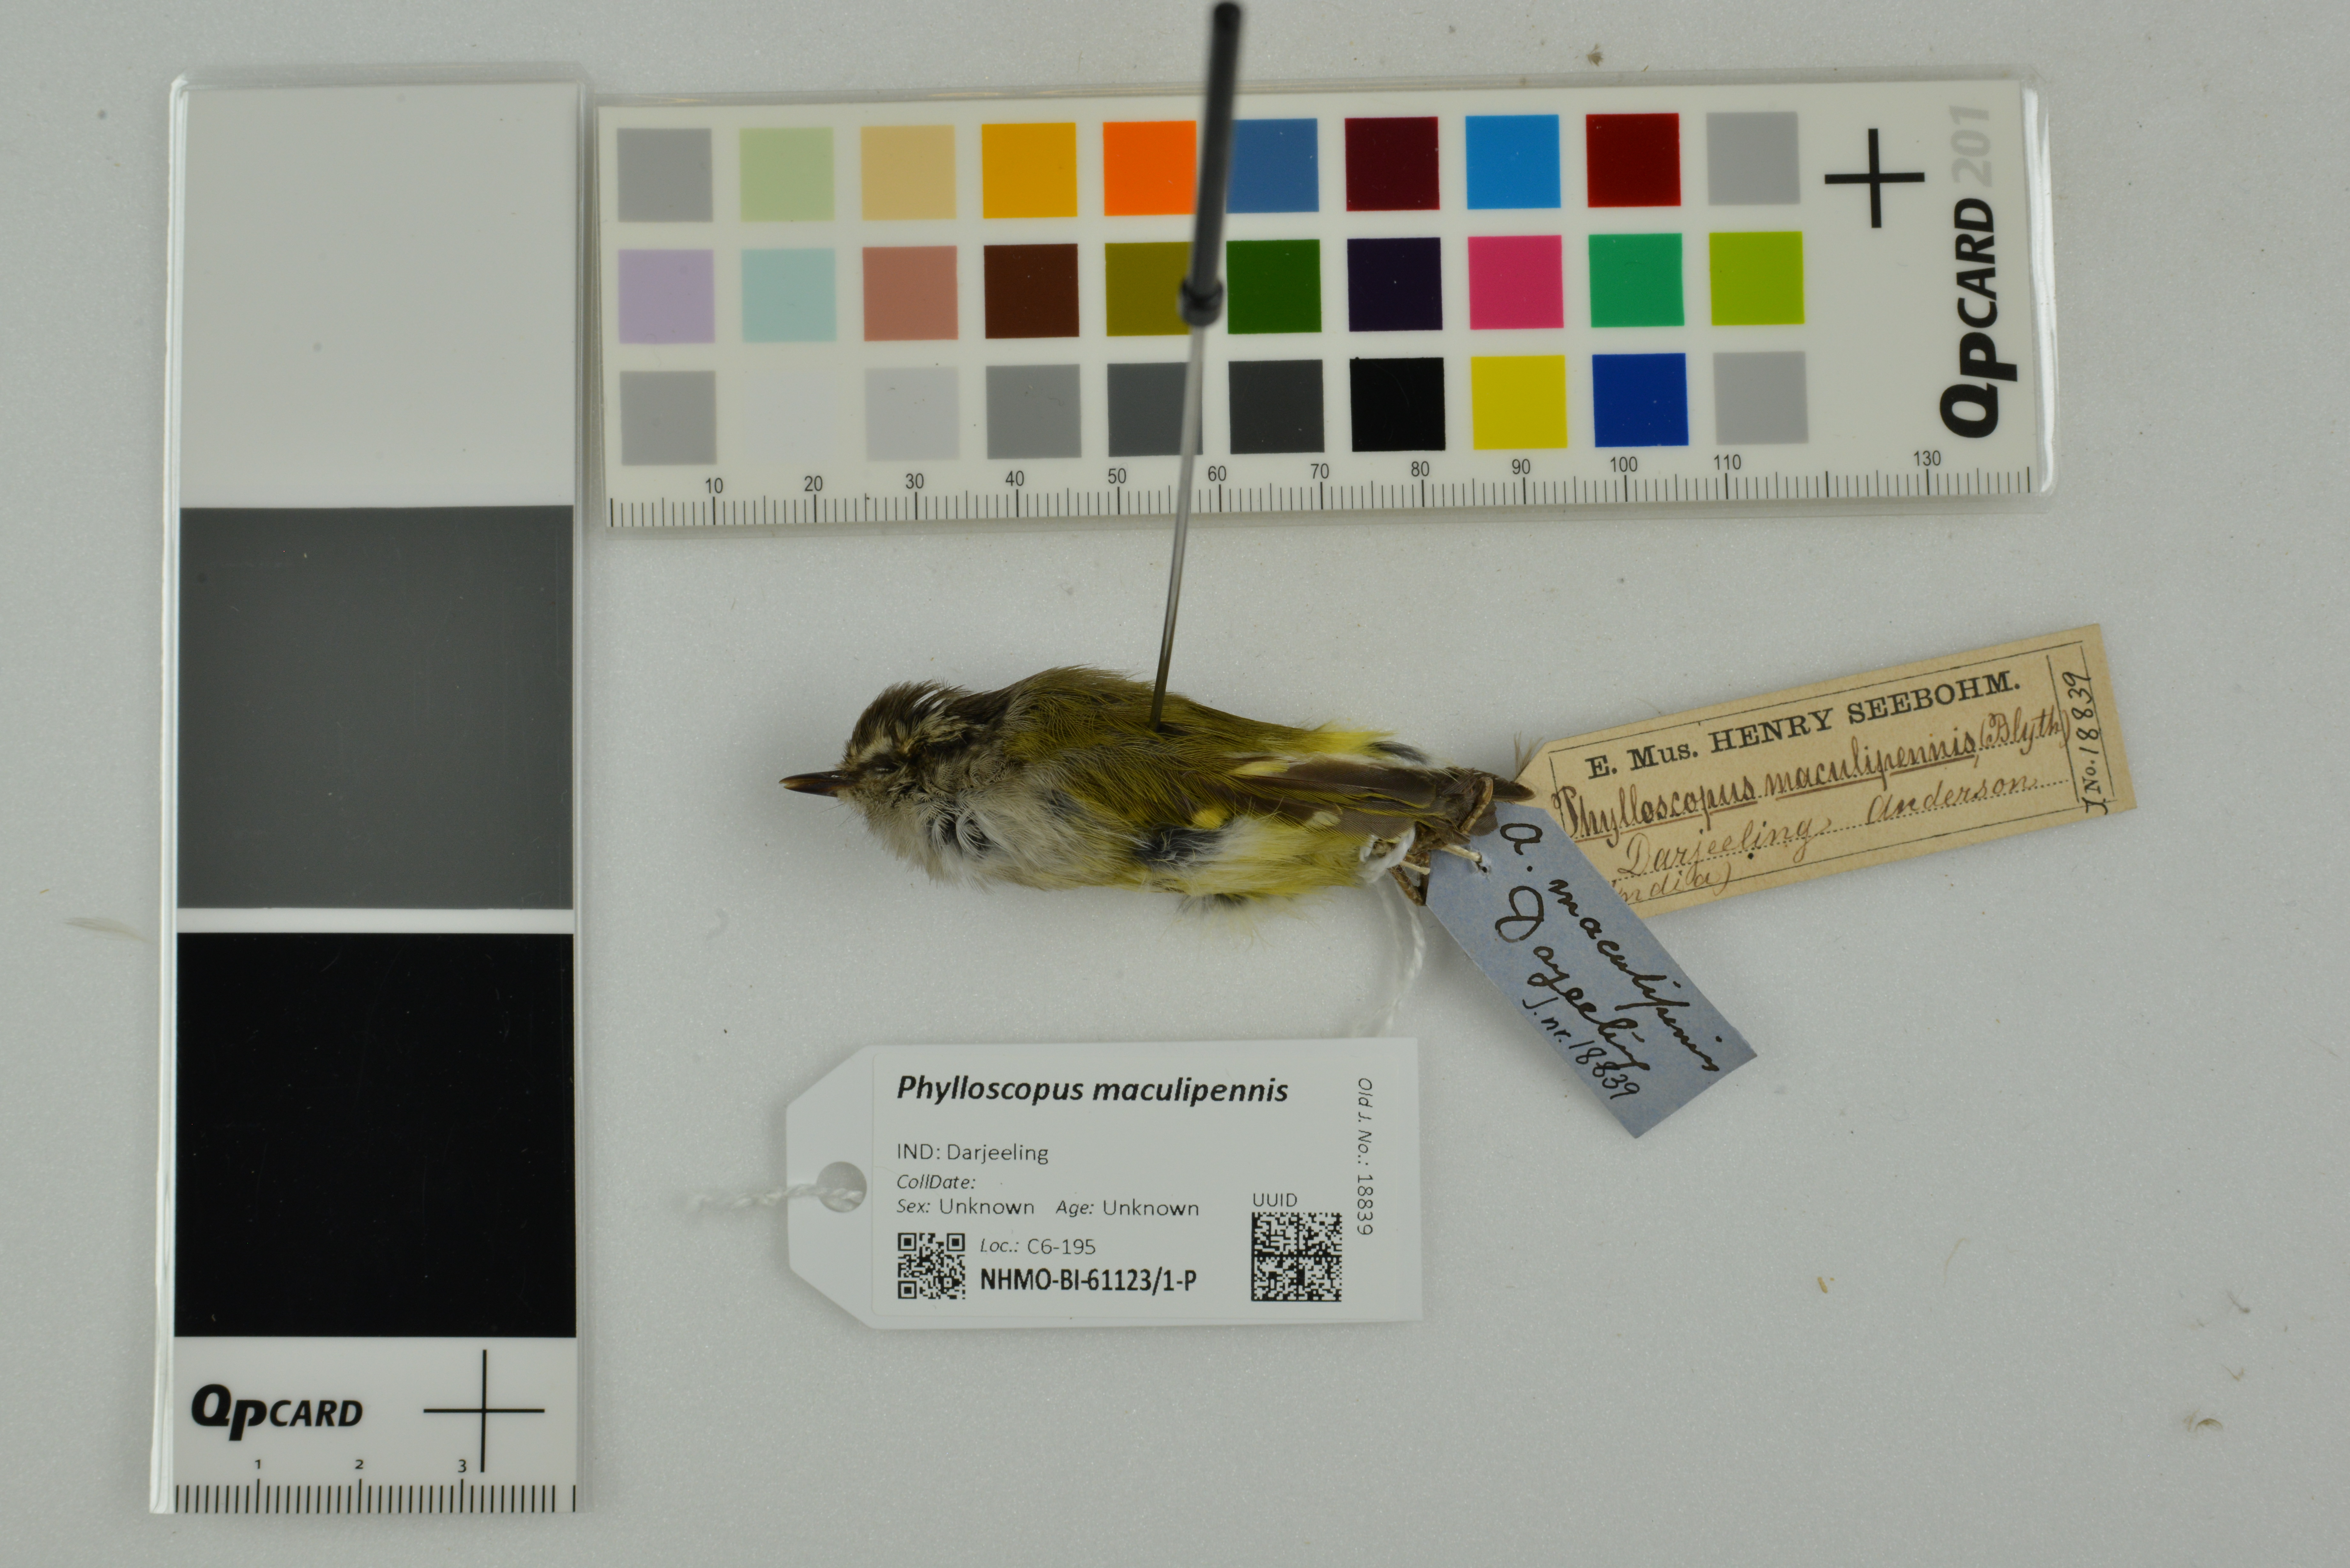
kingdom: Animalia
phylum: Chordata
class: Aves
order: Passeriformes
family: Phylloscopidae
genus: Phylloscopus
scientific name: Phylloscopus maculipennis
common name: Ashy-throated warbler
